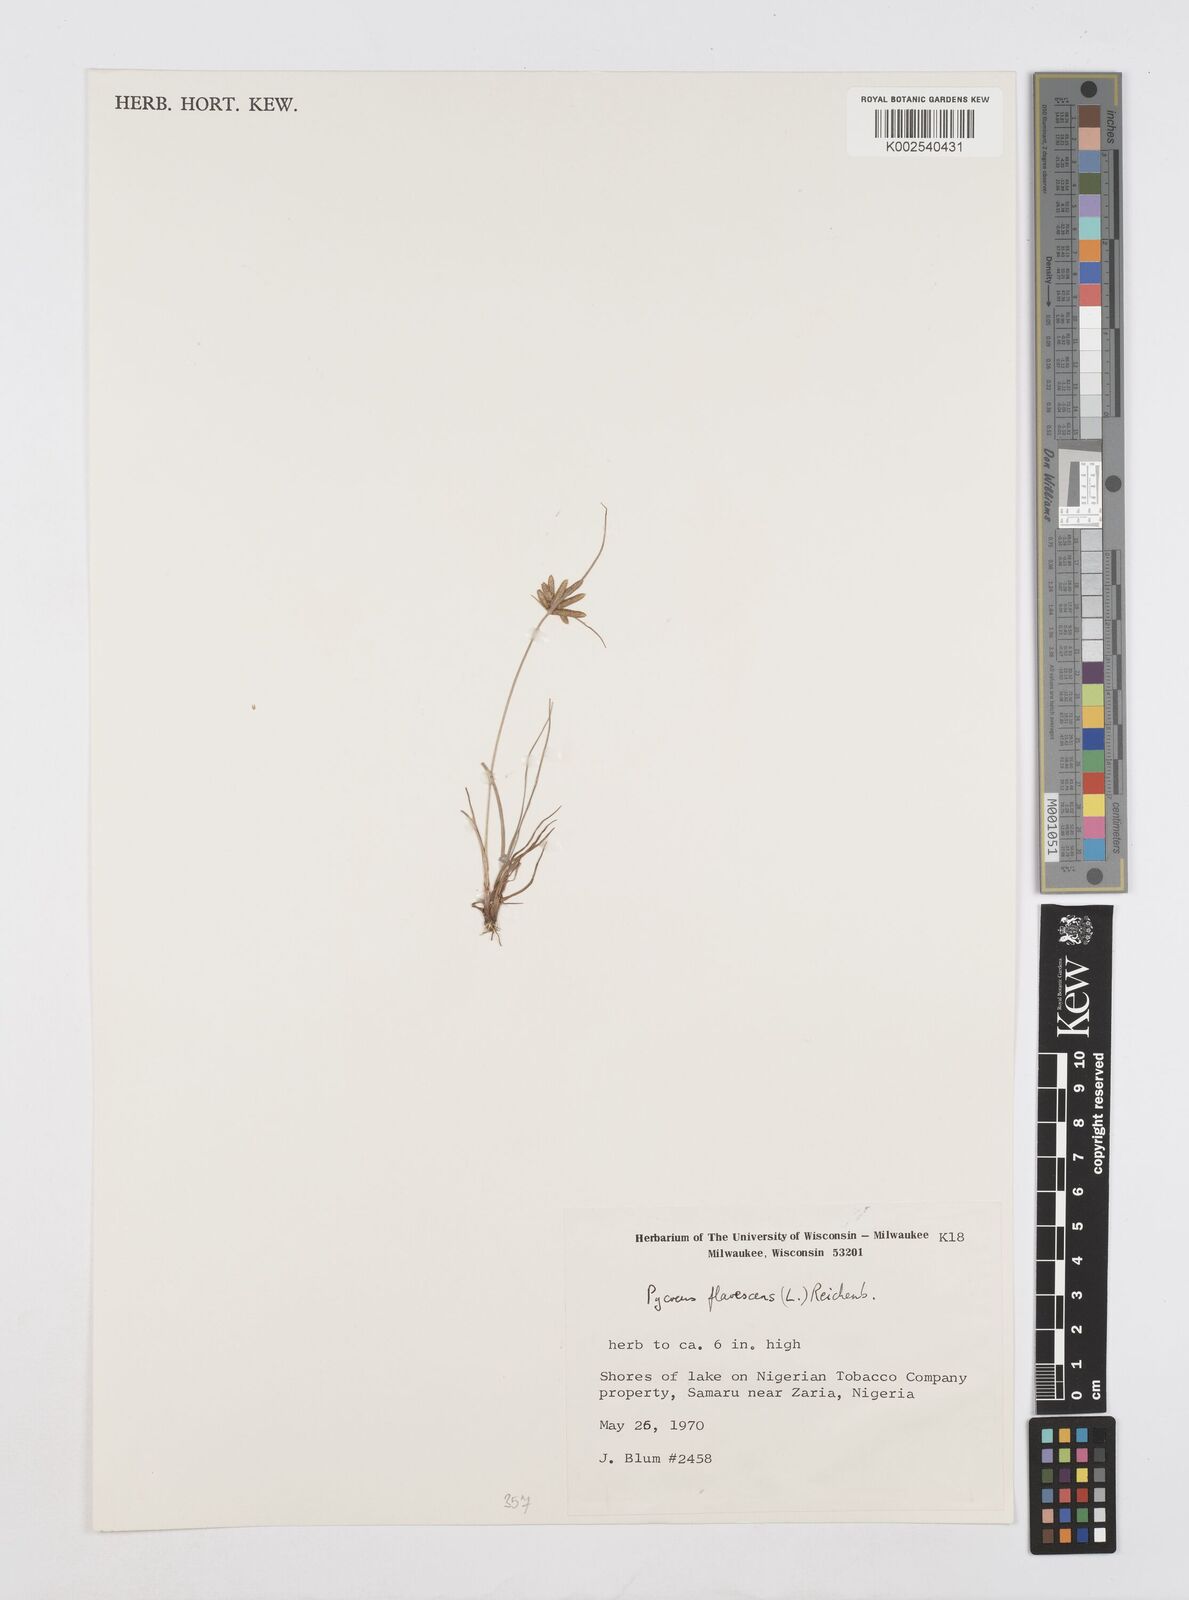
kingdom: Plantae
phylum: Tracheophyta
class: Liliopsida
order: Poales
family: Cyperaceae
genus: Cyperus
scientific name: Cyperus flavescens
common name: Yellow galingale
